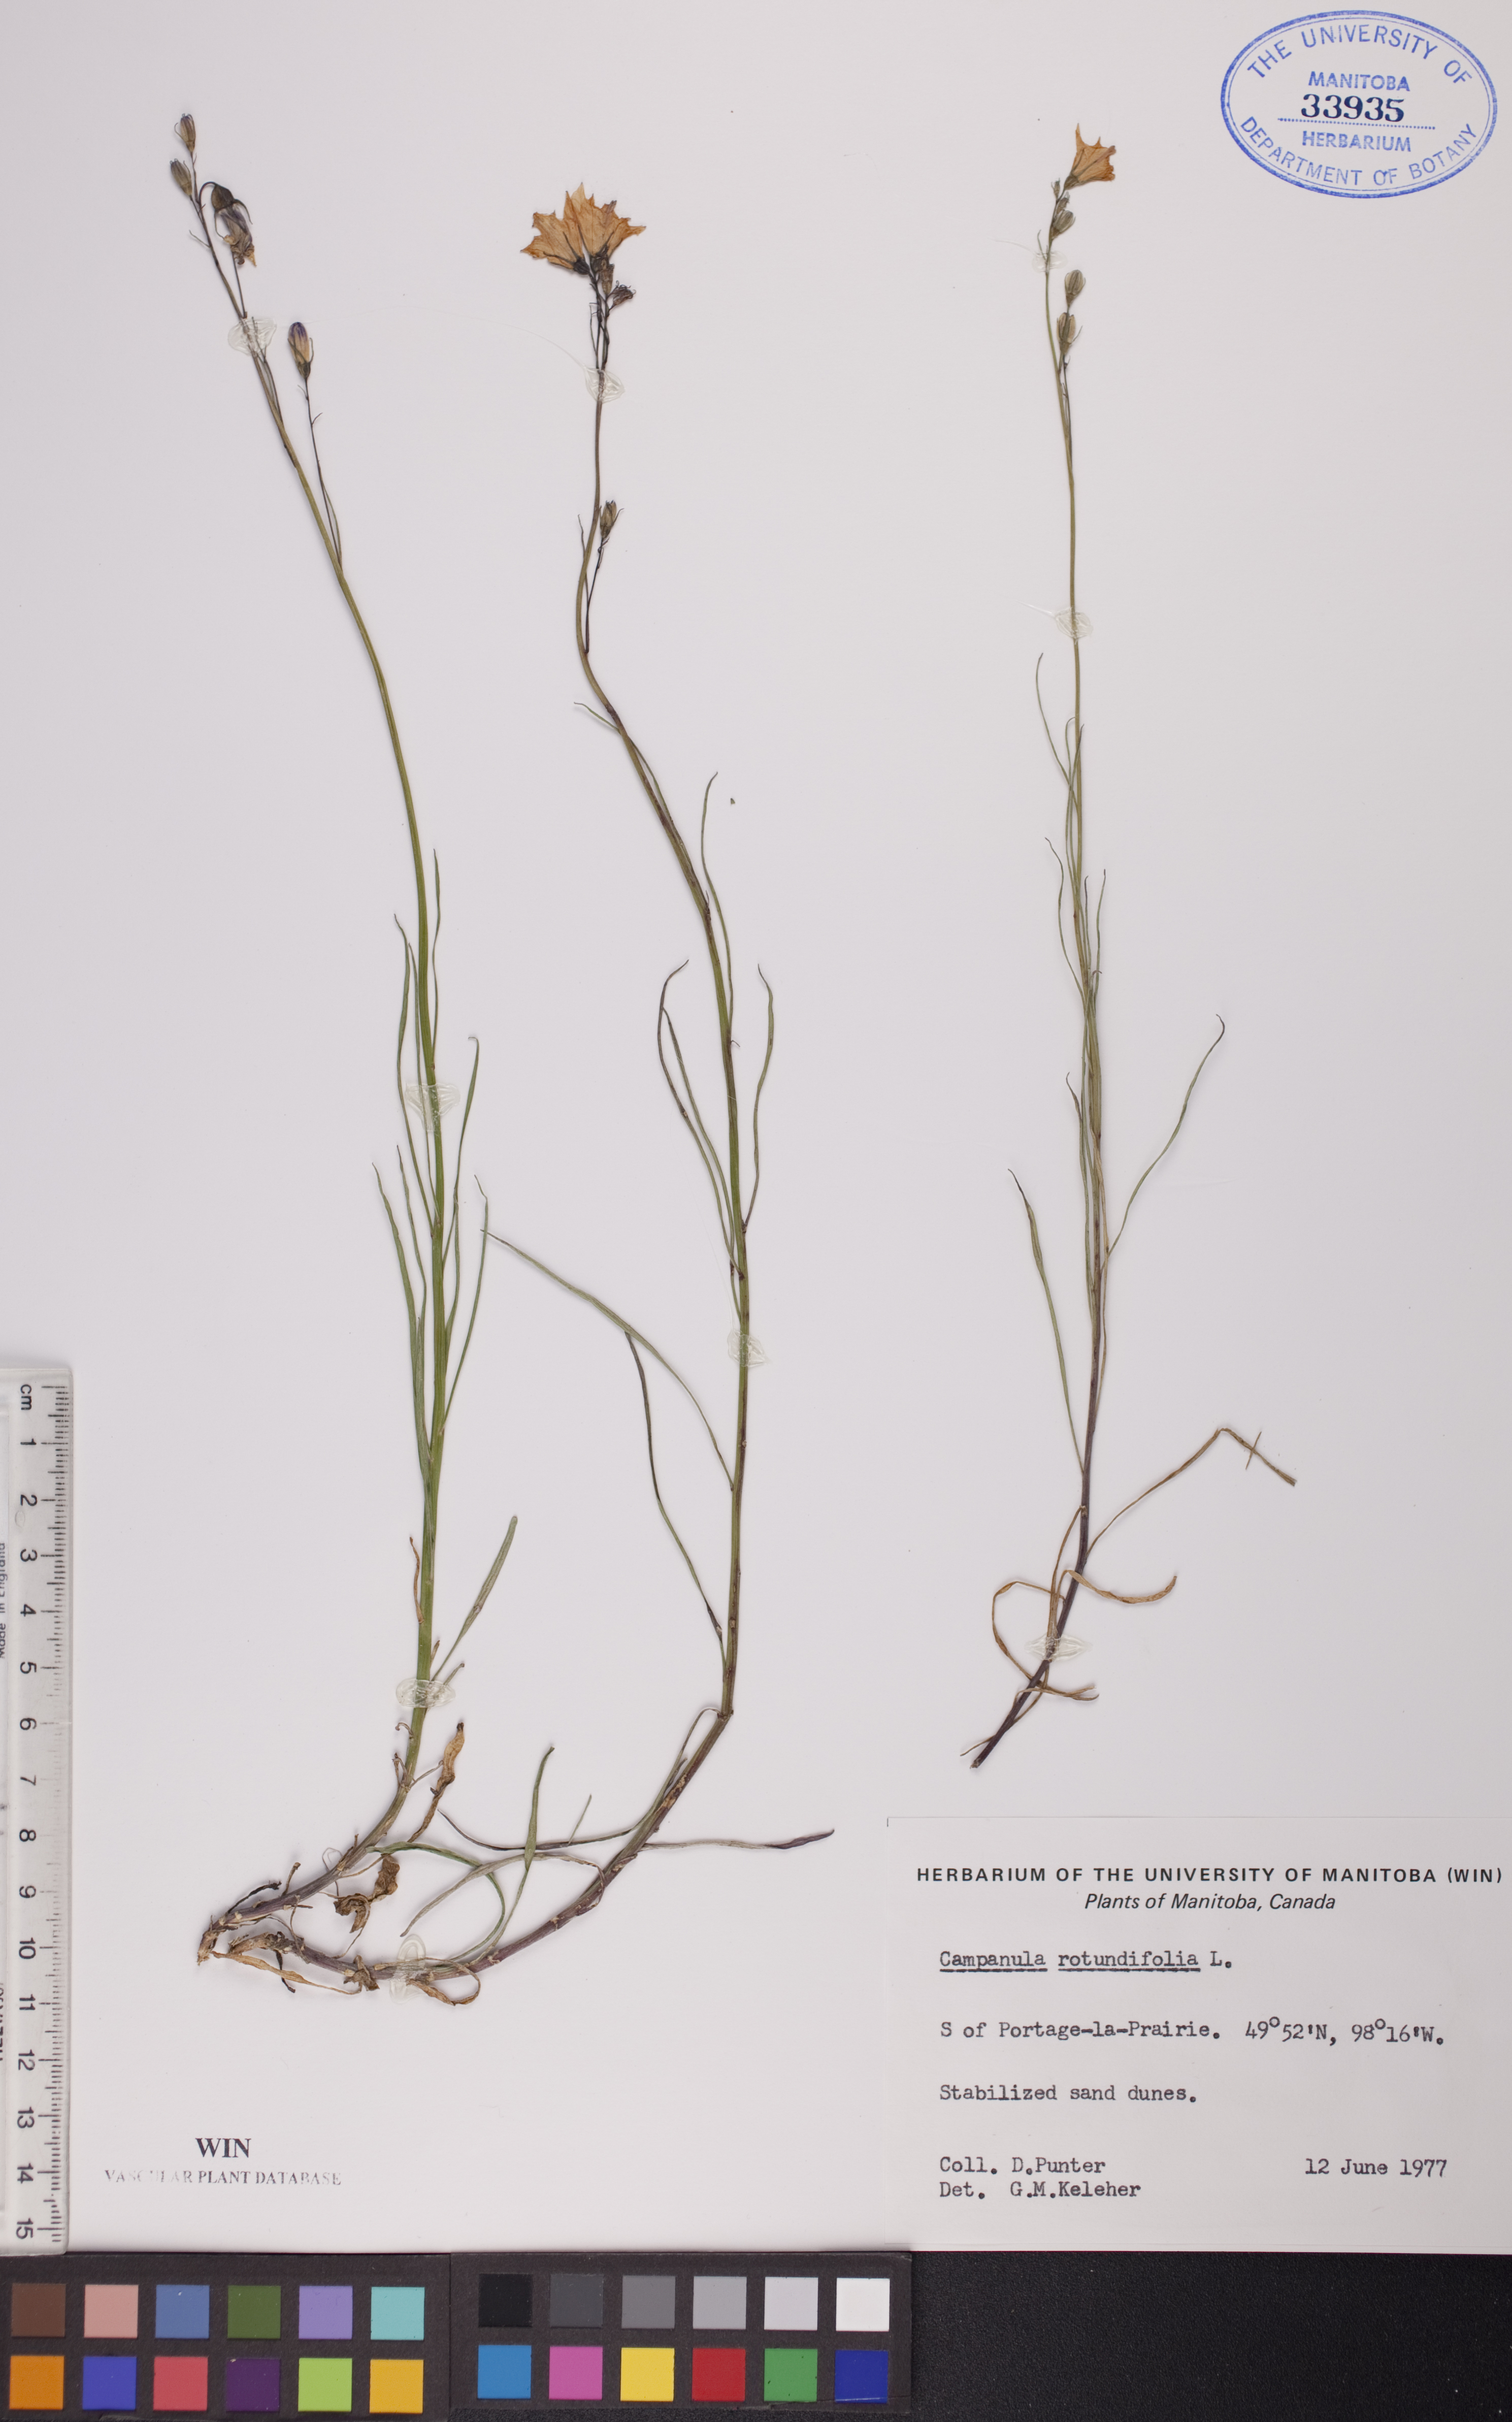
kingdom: Plantae
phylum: Tracheophyta
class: Magnoliopsida
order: Asterales
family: Campanulaceae
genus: Campanula
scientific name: Campanula rotundifolia
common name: Harebell
